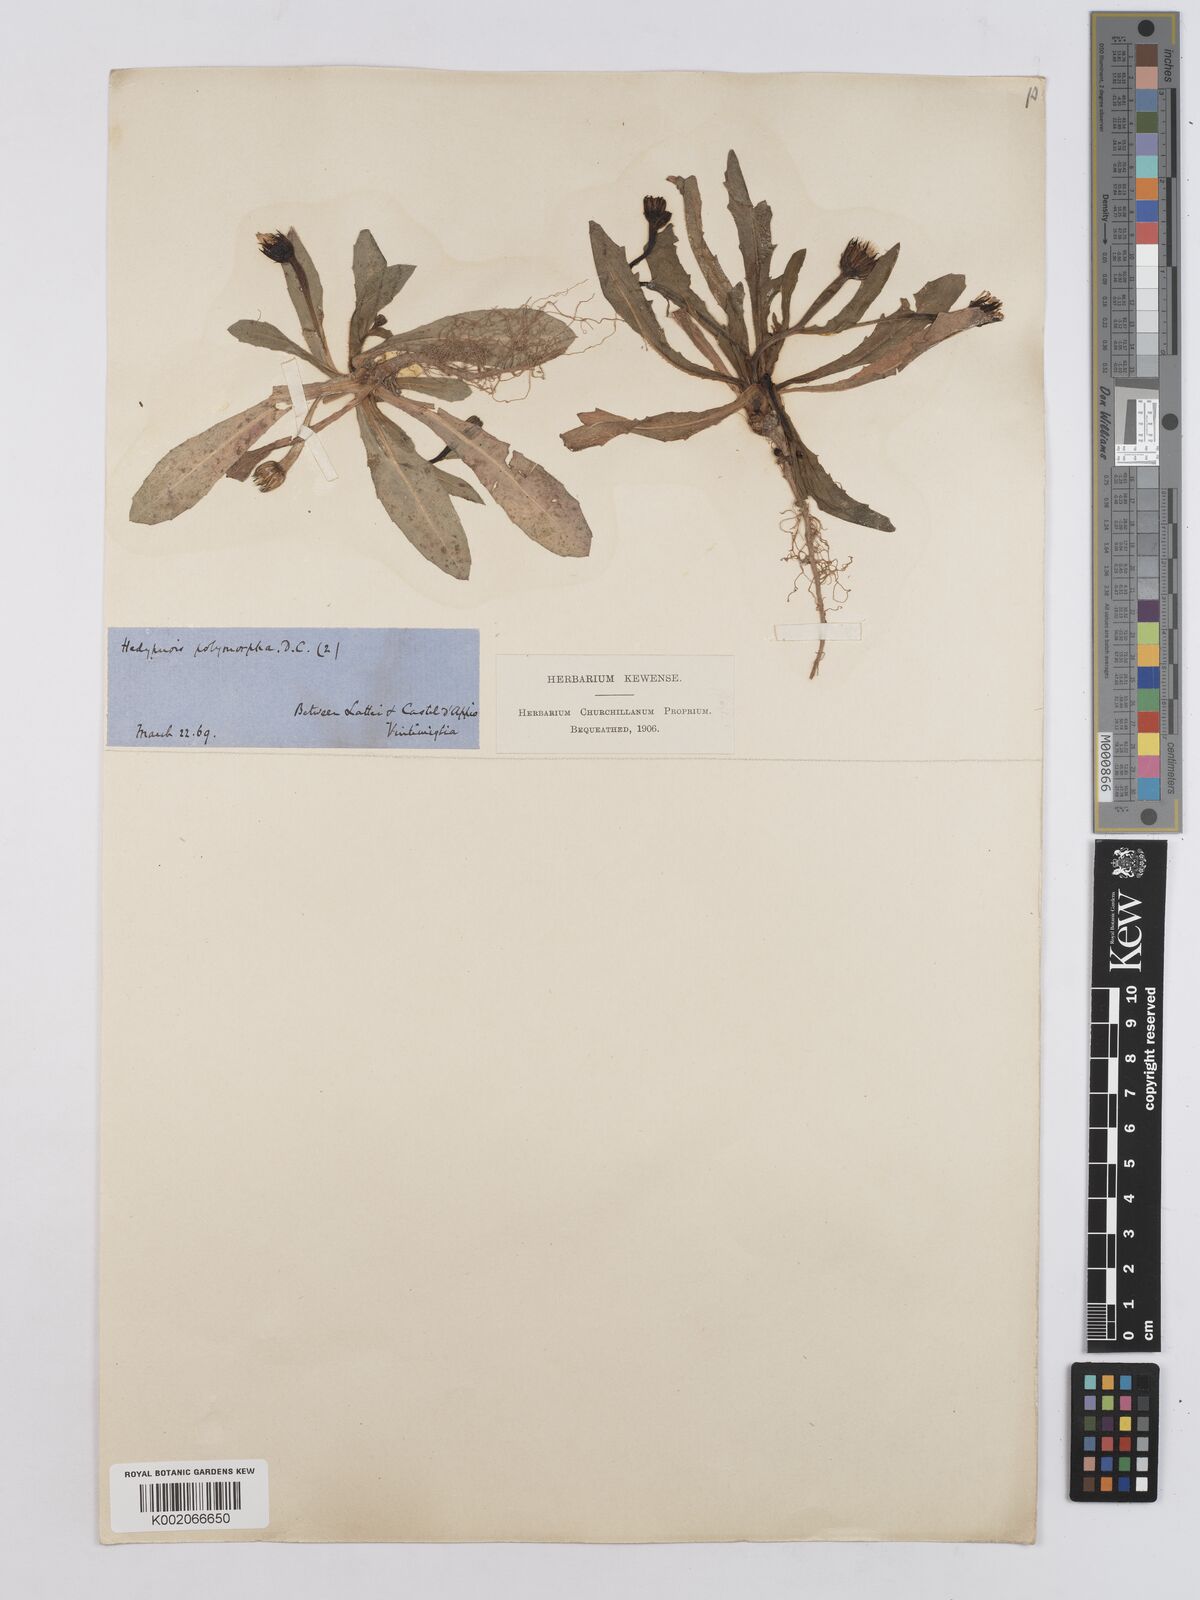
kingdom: Plantae
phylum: Tracheophyta
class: Magnoliopsida
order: Asterales
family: Asteraceae
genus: Hedypnois
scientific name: Hedypnois cretica
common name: Scaly hawkbit
